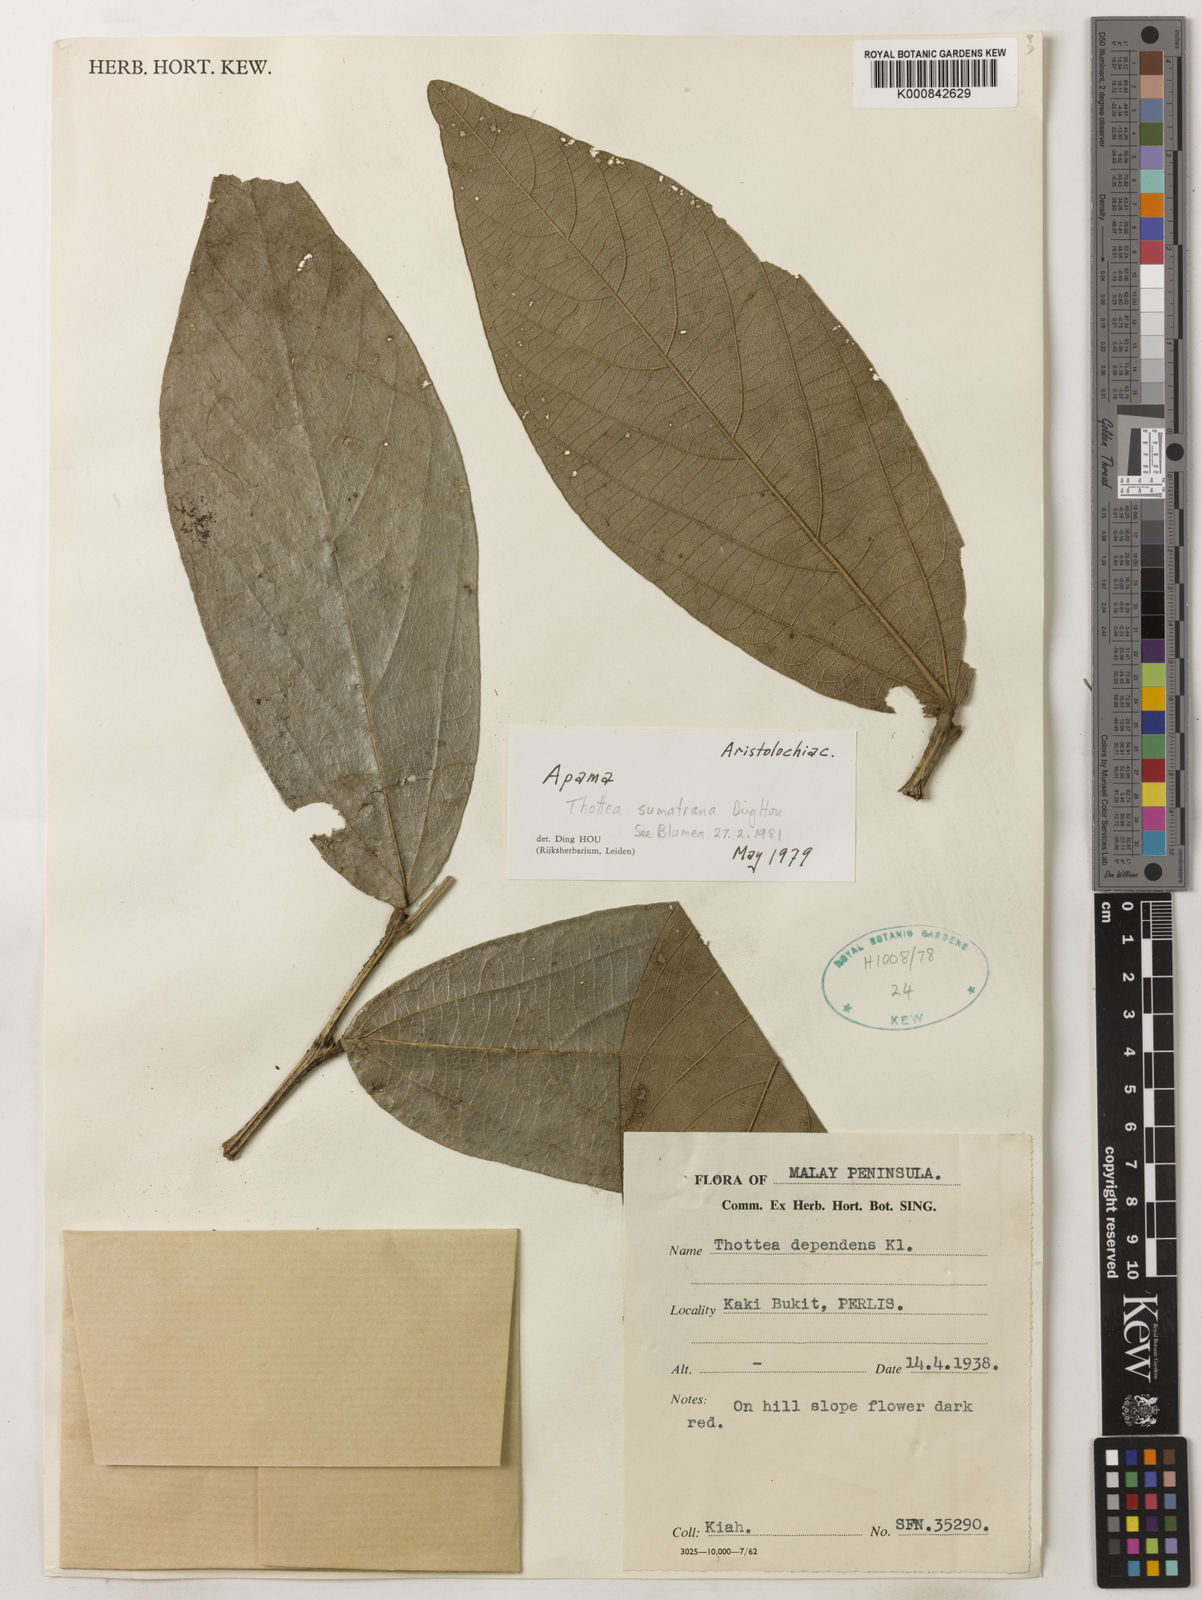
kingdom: Plantae
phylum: Tracheophyta
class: Magnoliopsida
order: Piperales
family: Aristolochiaceae
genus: Thottea
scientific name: Thottea sumatrana
